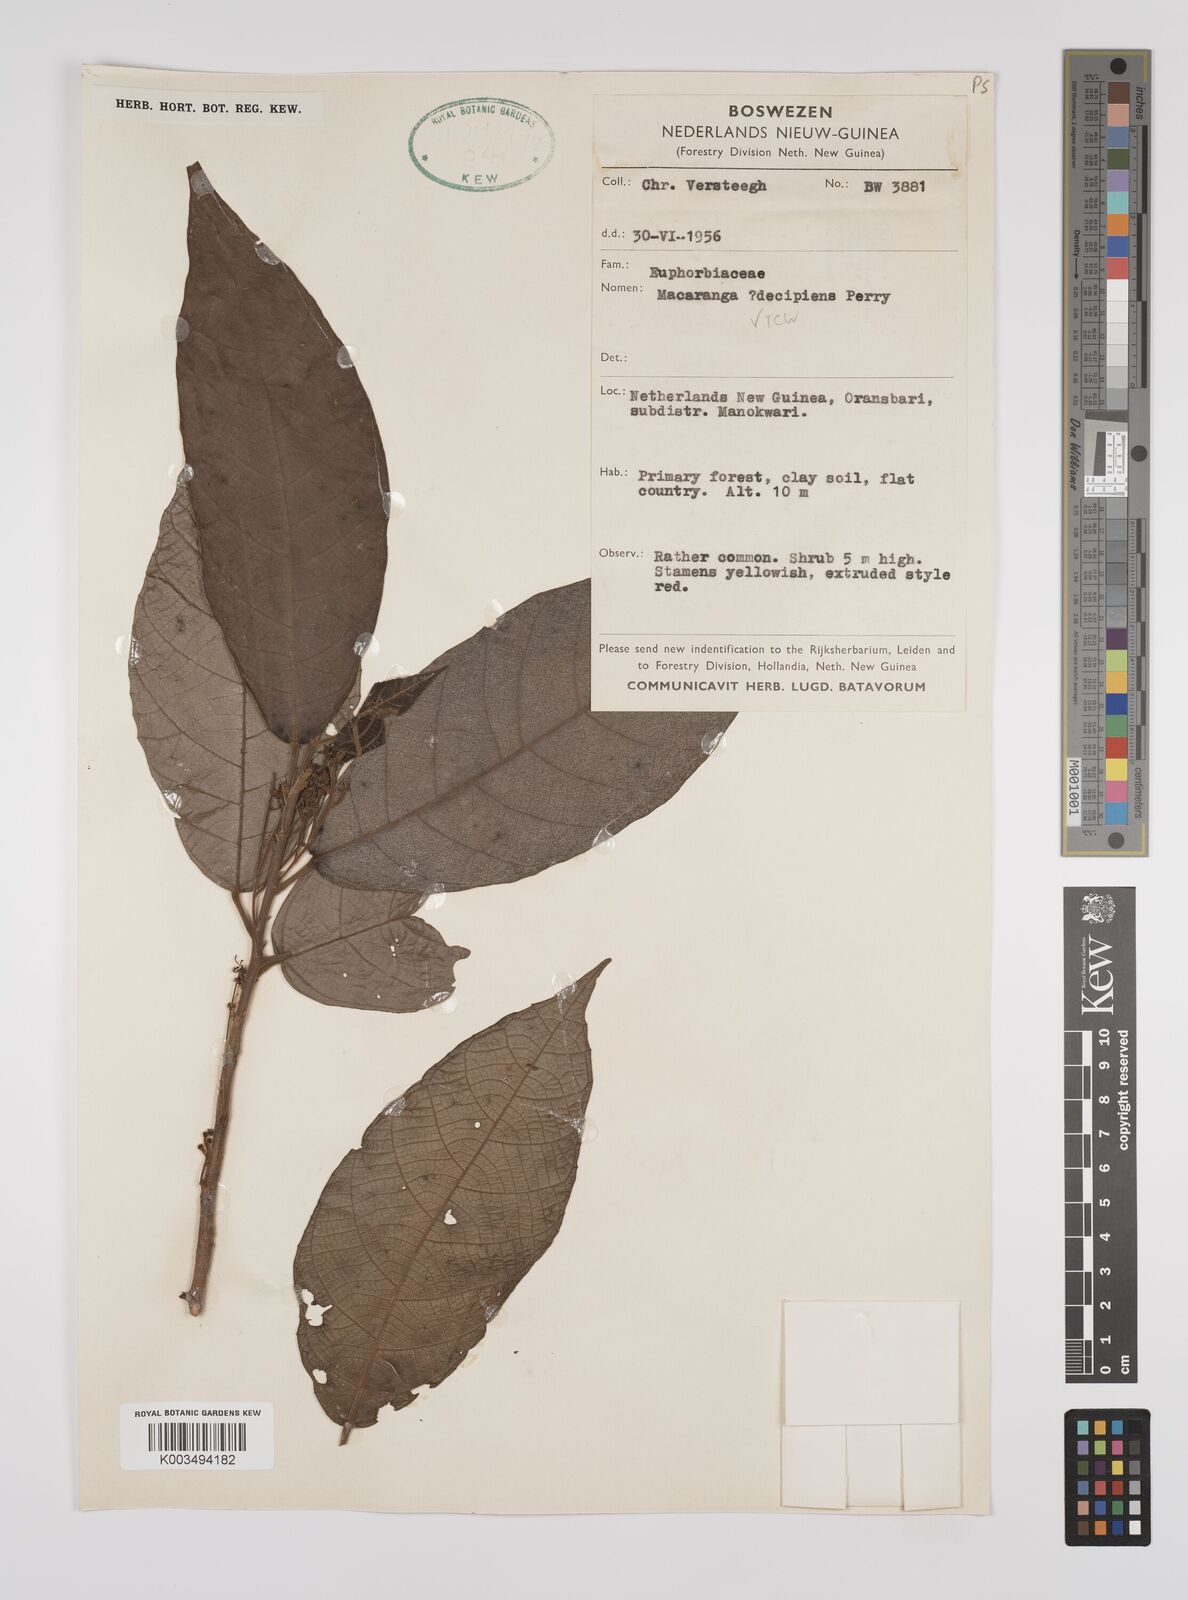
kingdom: Plantae
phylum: Tracheophyta
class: Magnoliopsida
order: Malpighiales
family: Euphorbiaceae
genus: Macaranga
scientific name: Macaranga decipiens
